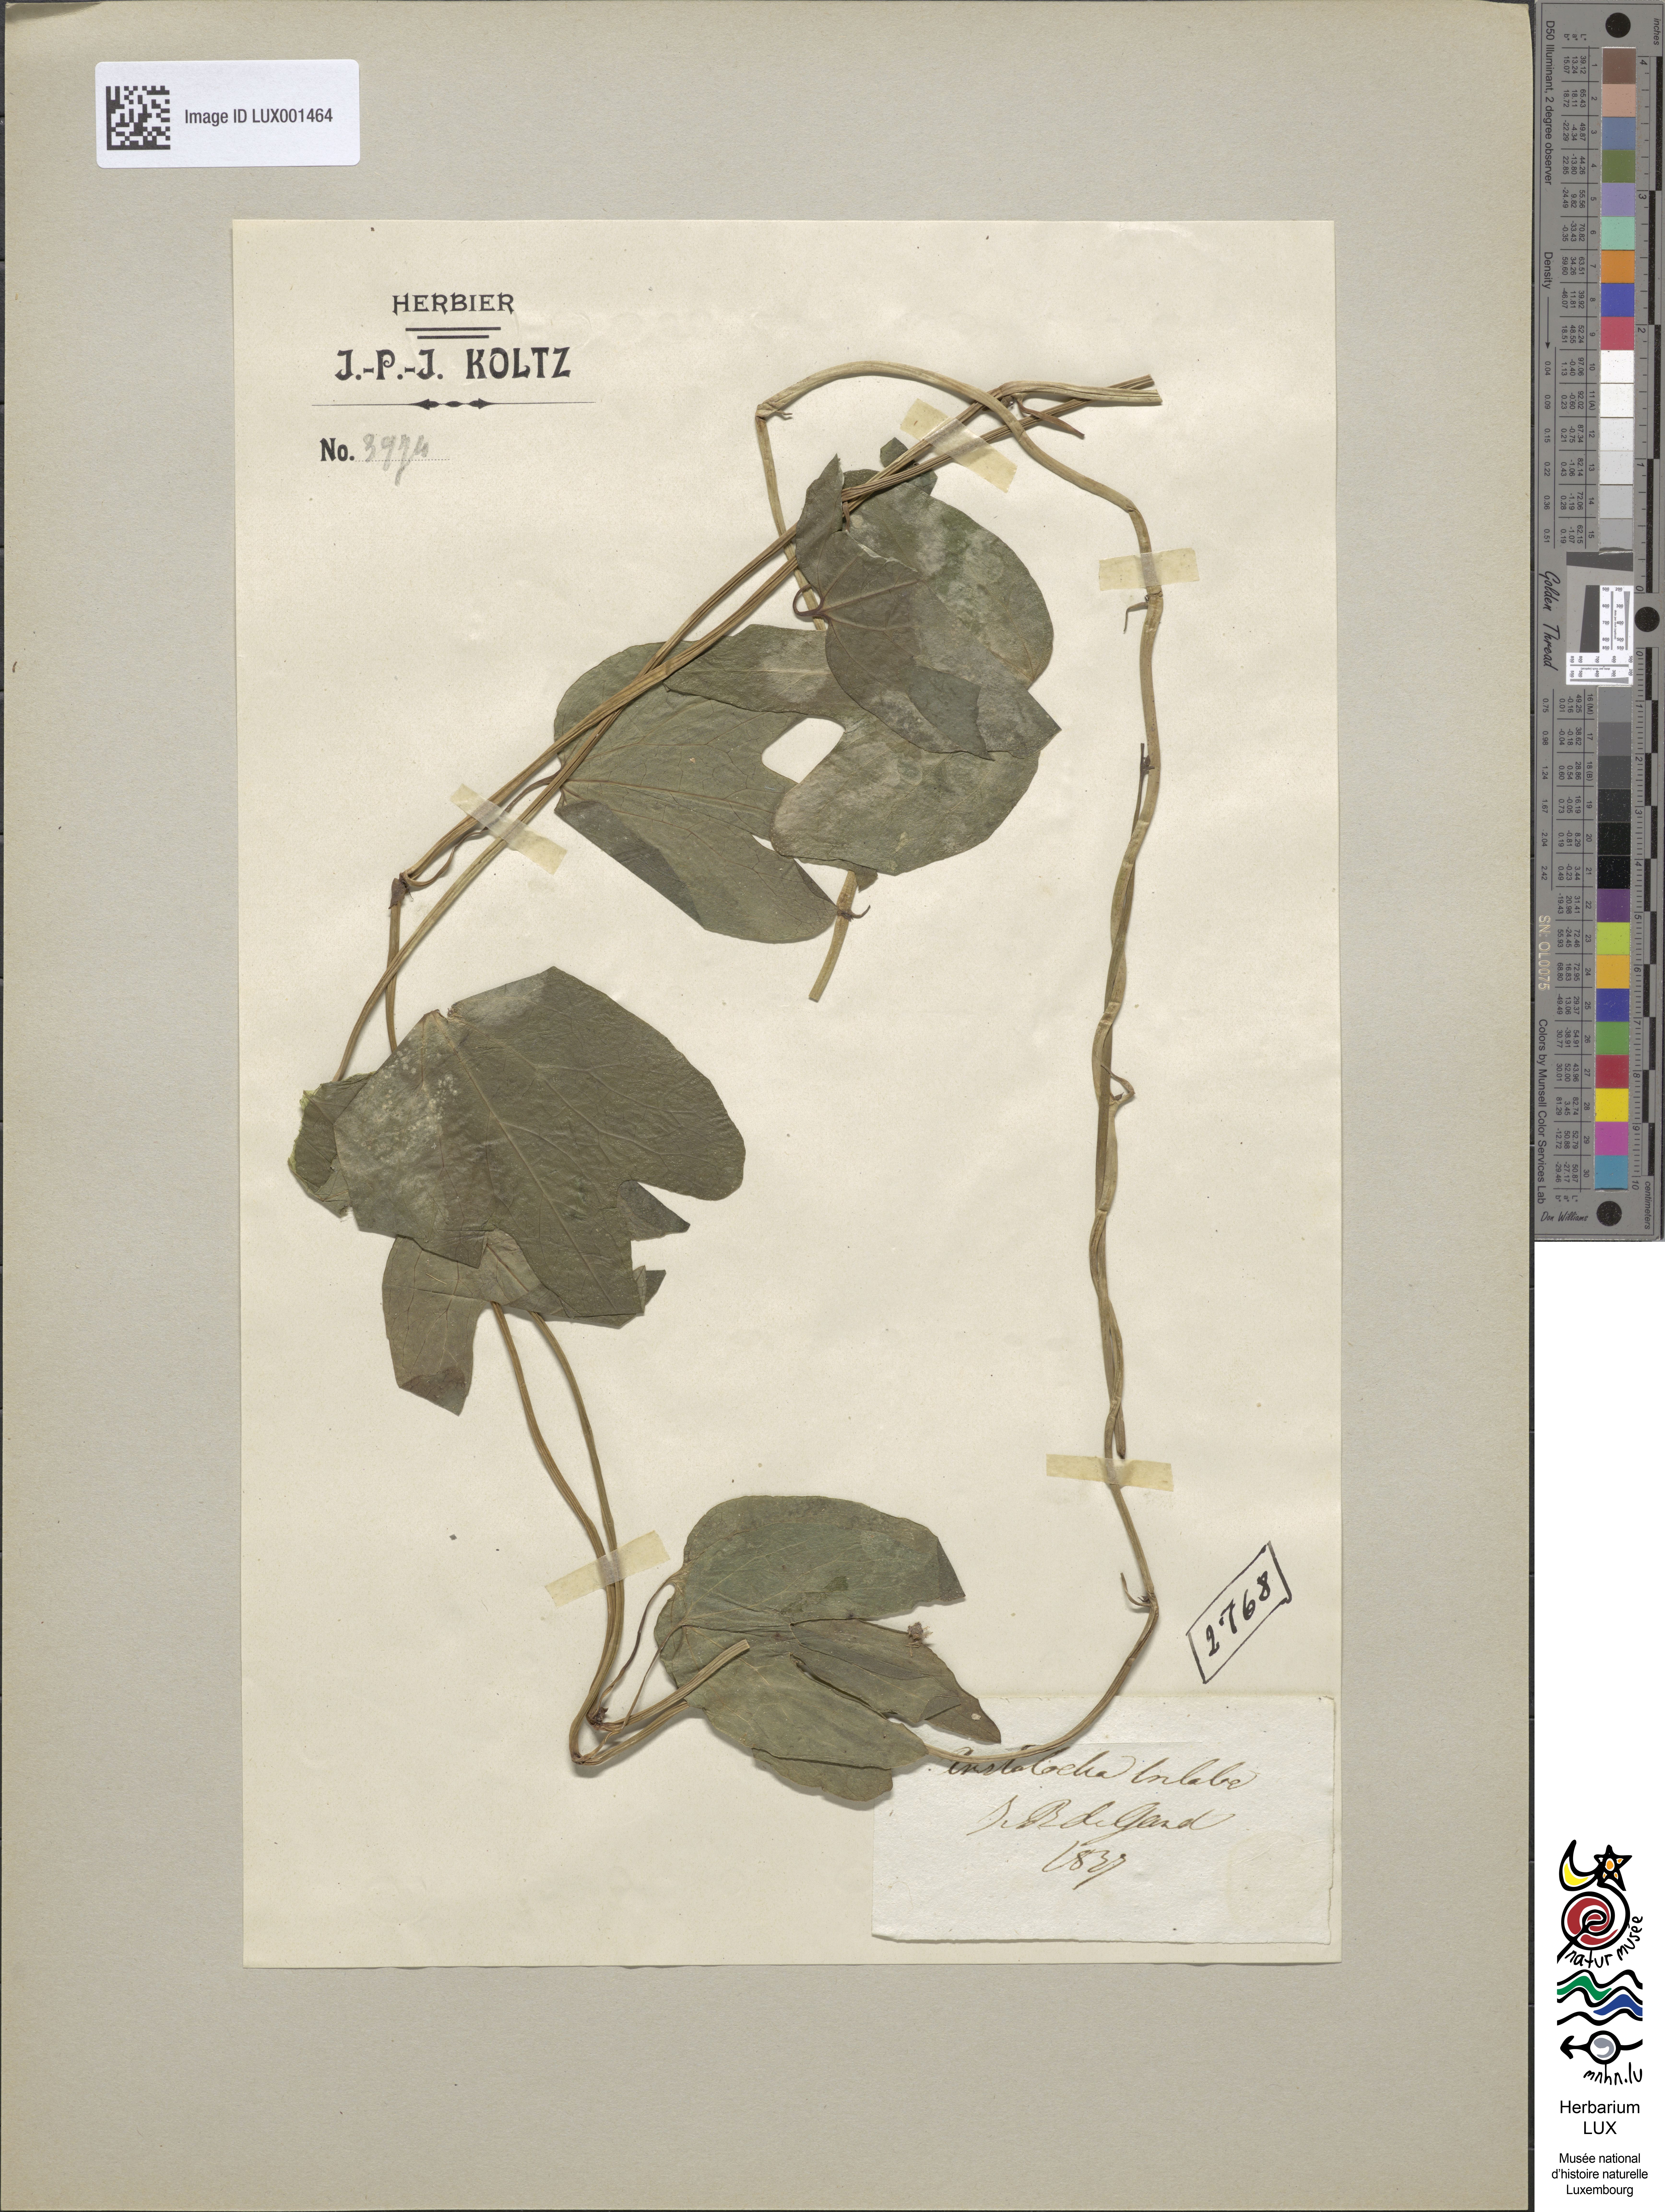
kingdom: Plantae
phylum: Tracheophyta
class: Magnoliopsida
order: Piperales
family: Aristolochiaceae
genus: Aristolochia
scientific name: Aristolochia
